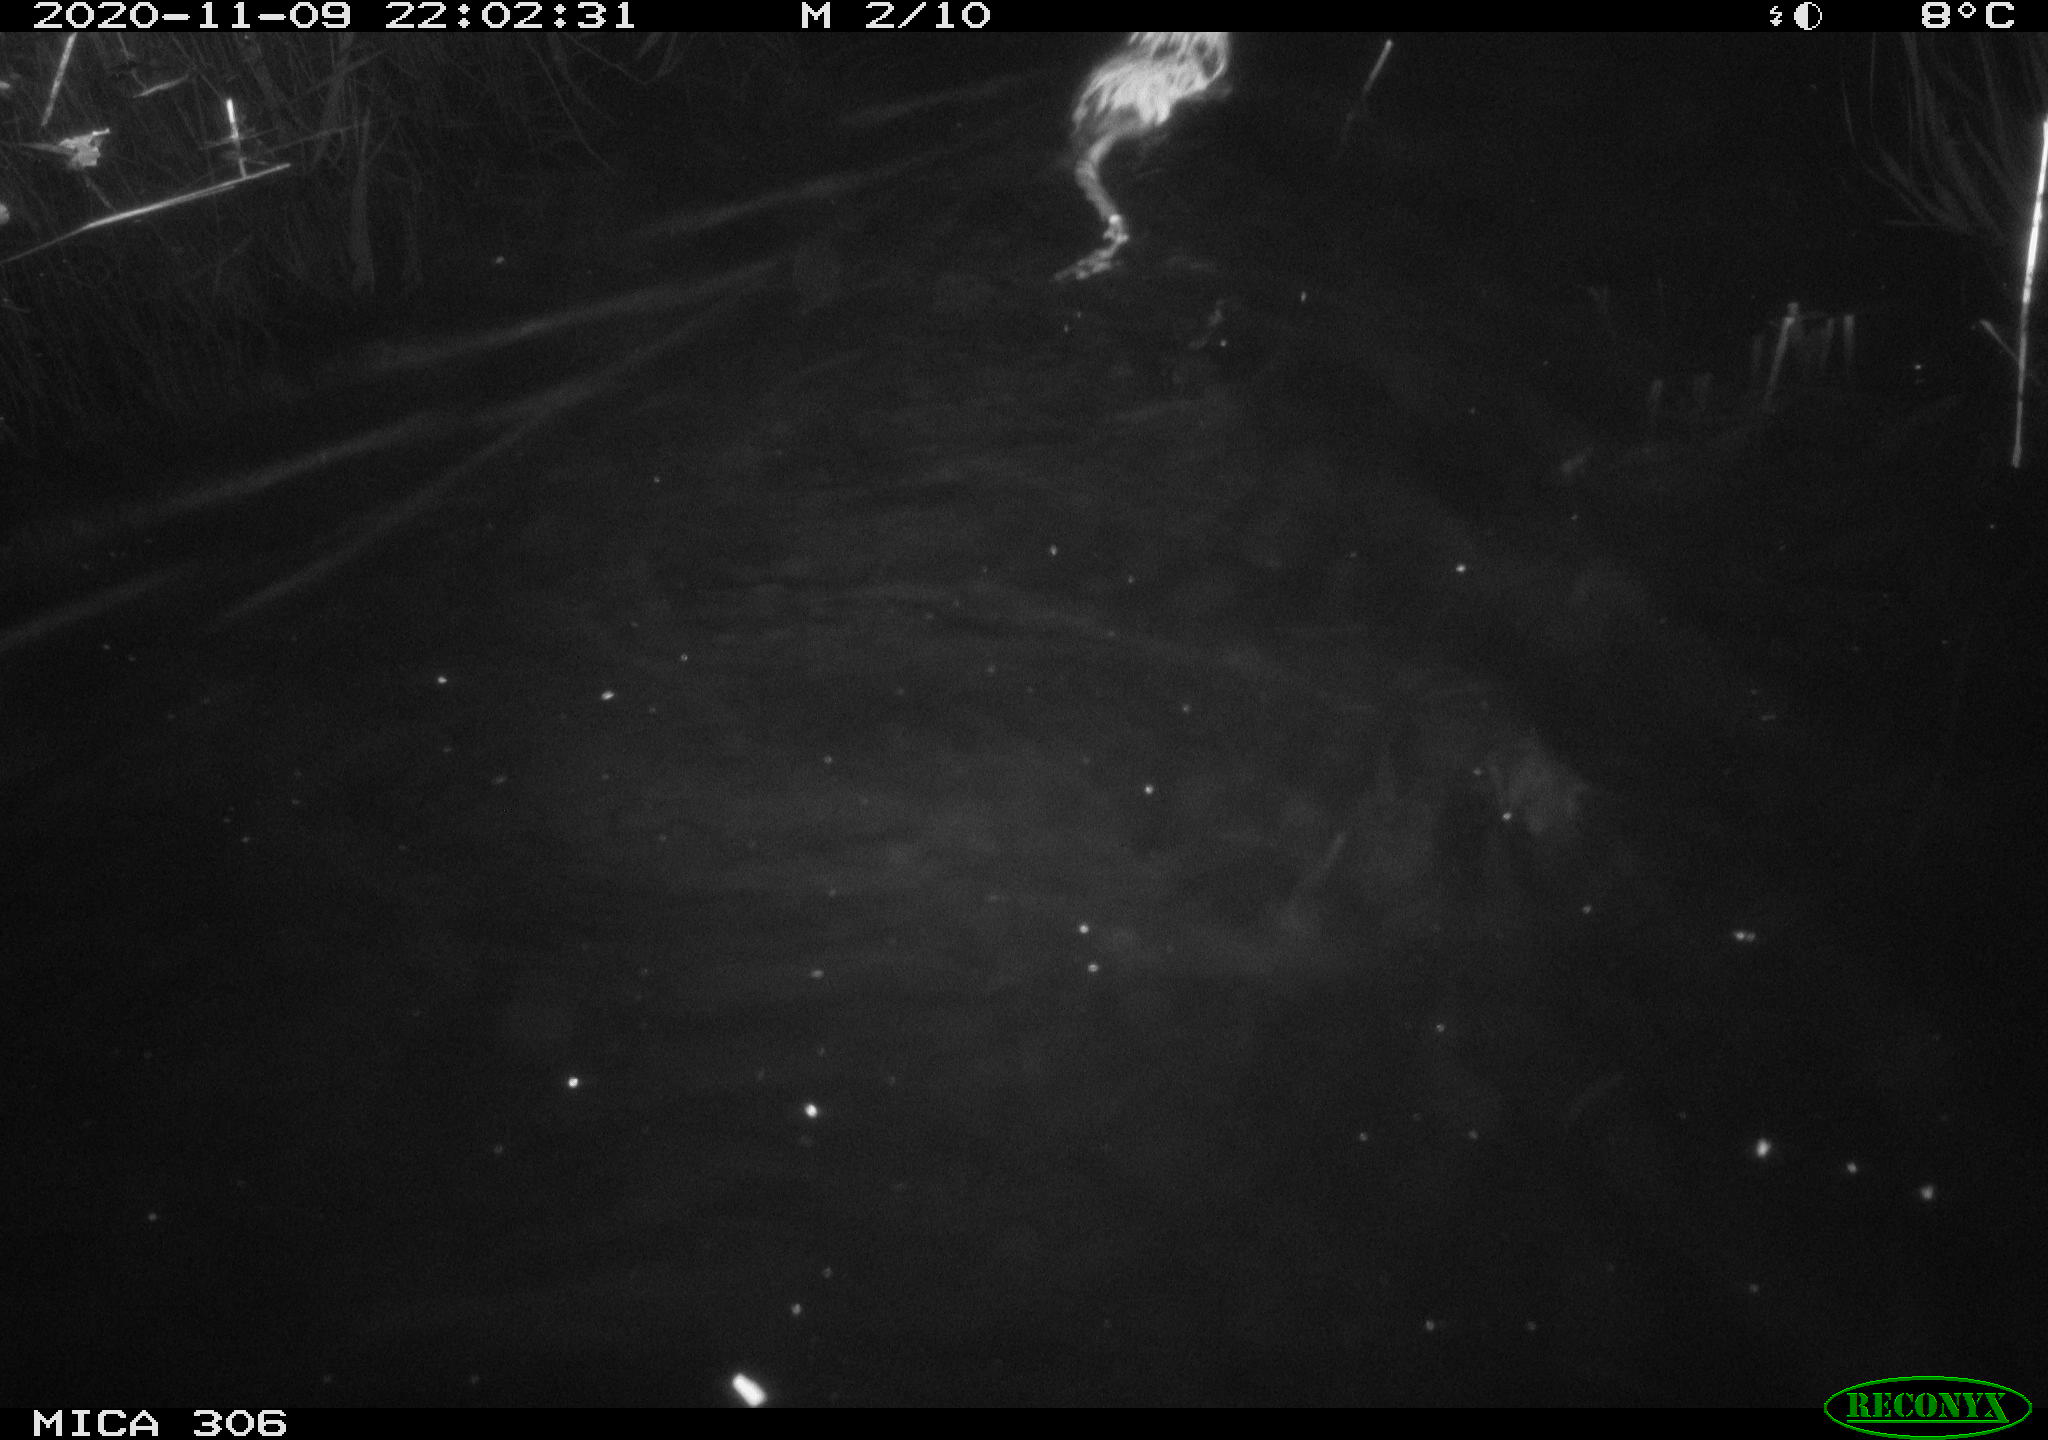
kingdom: Animalia
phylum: Chordata
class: Mammalia
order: Rodentia
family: Cricetidae
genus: Ondatra
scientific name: Ondatra zibethicus
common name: Muskrat
